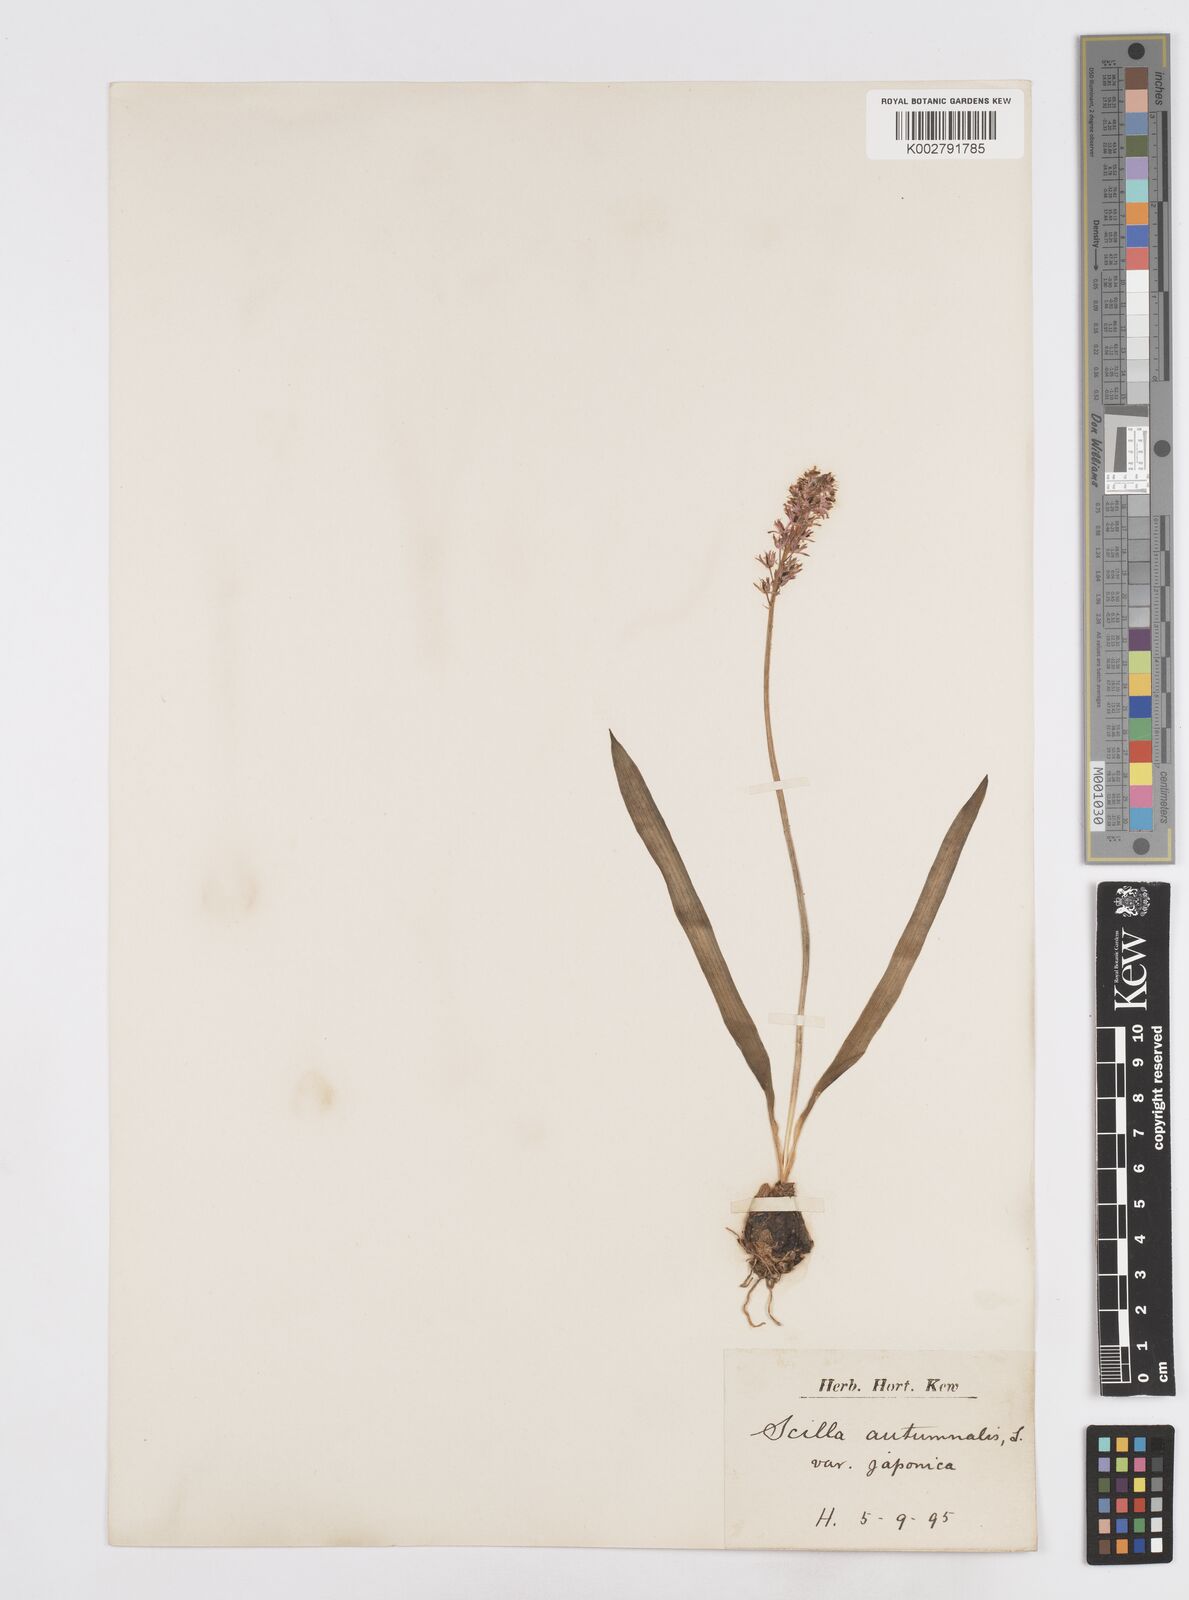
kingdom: Plantae
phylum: Tracheophyta
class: Liliopsida
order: Asparagales
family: Asparagaceae
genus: Prospero
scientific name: Prospero autumnale
